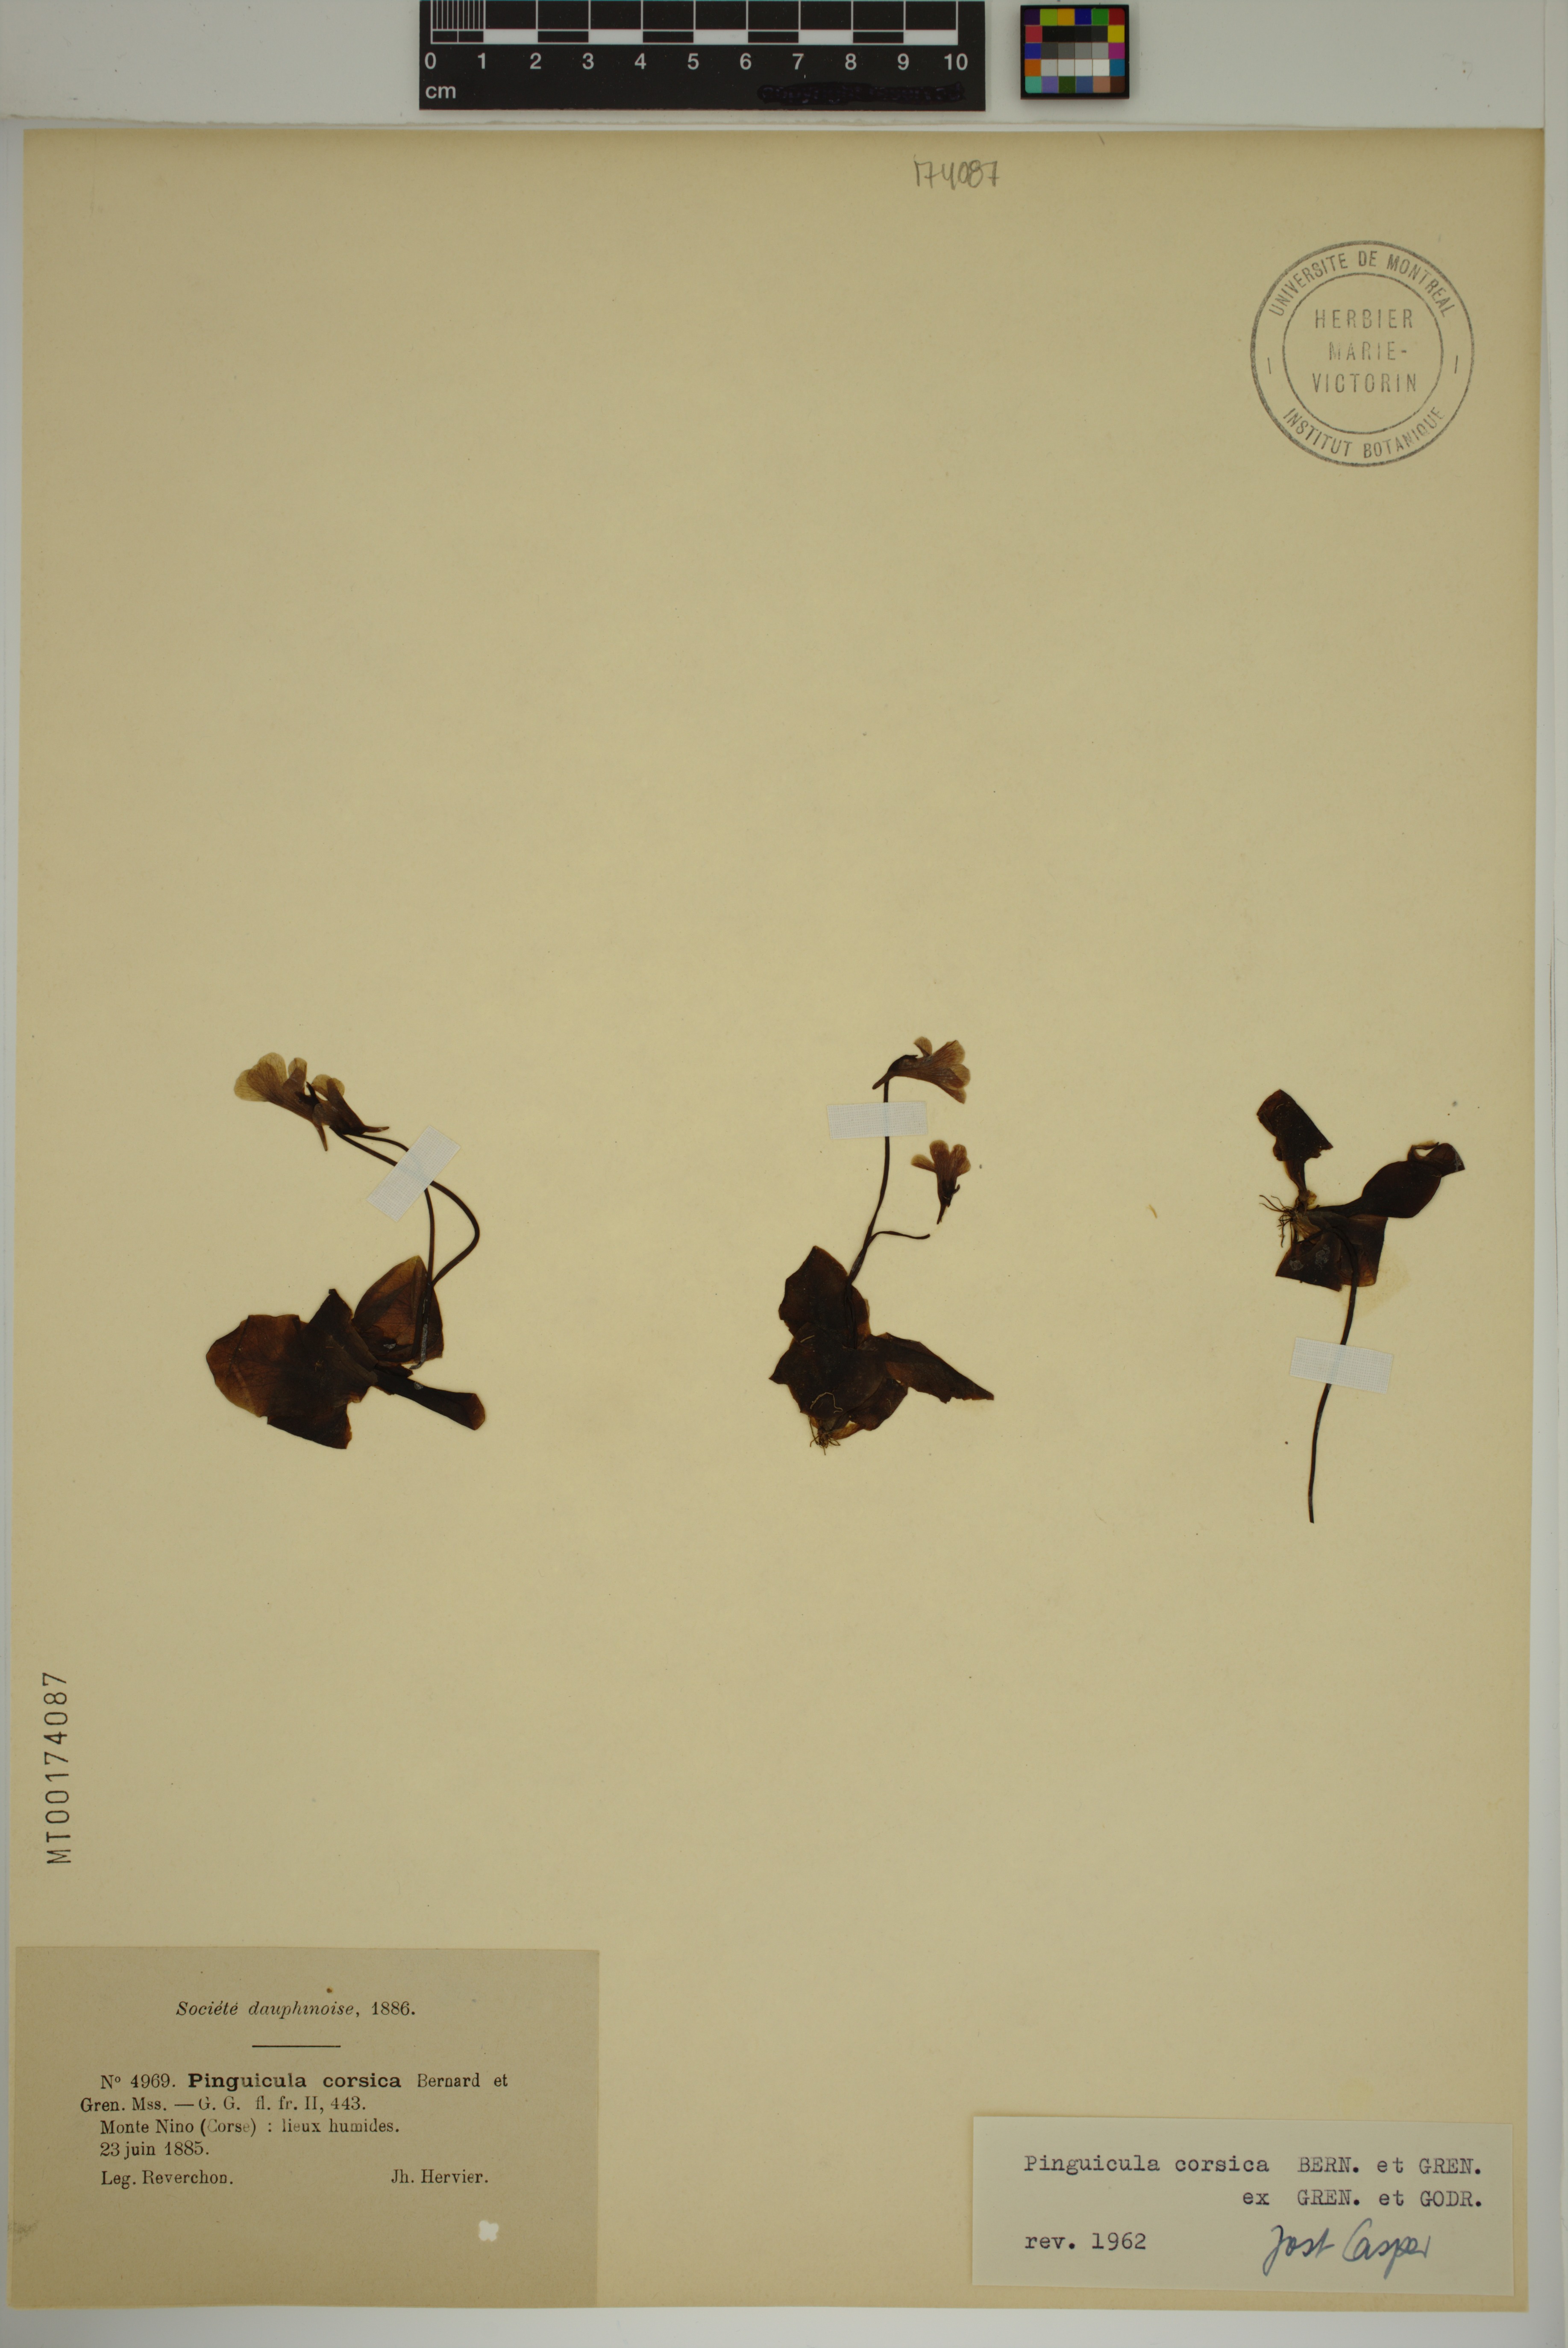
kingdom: Plantae
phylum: Tracheophyta
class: Magnoliopsida
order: Lamiales
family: Lentibulariaceae
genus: Pinguicula
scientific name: Pinguicula corsica
